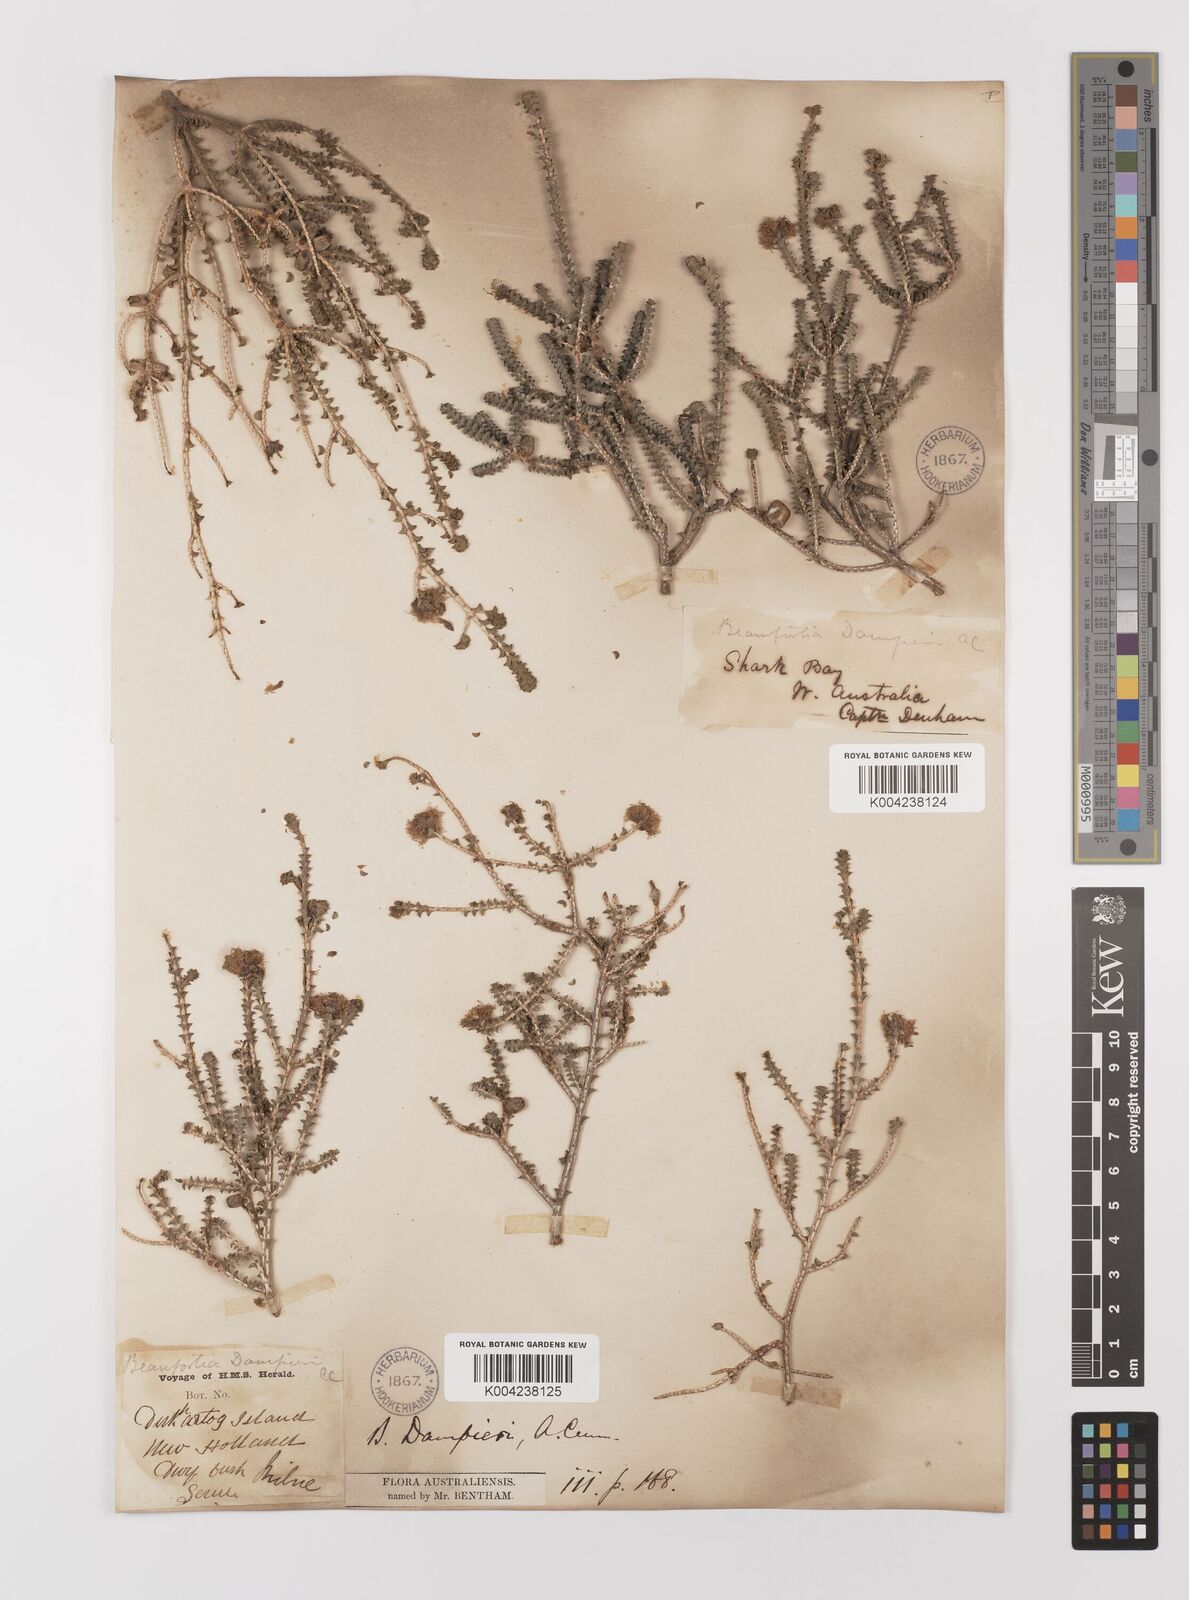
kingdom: Plantae
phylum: Tracheophyta
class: Magnoliopsida
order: Myrtales
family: Myrtaceae
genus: Melaleuca
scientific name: Melaleuca sprengelioides
